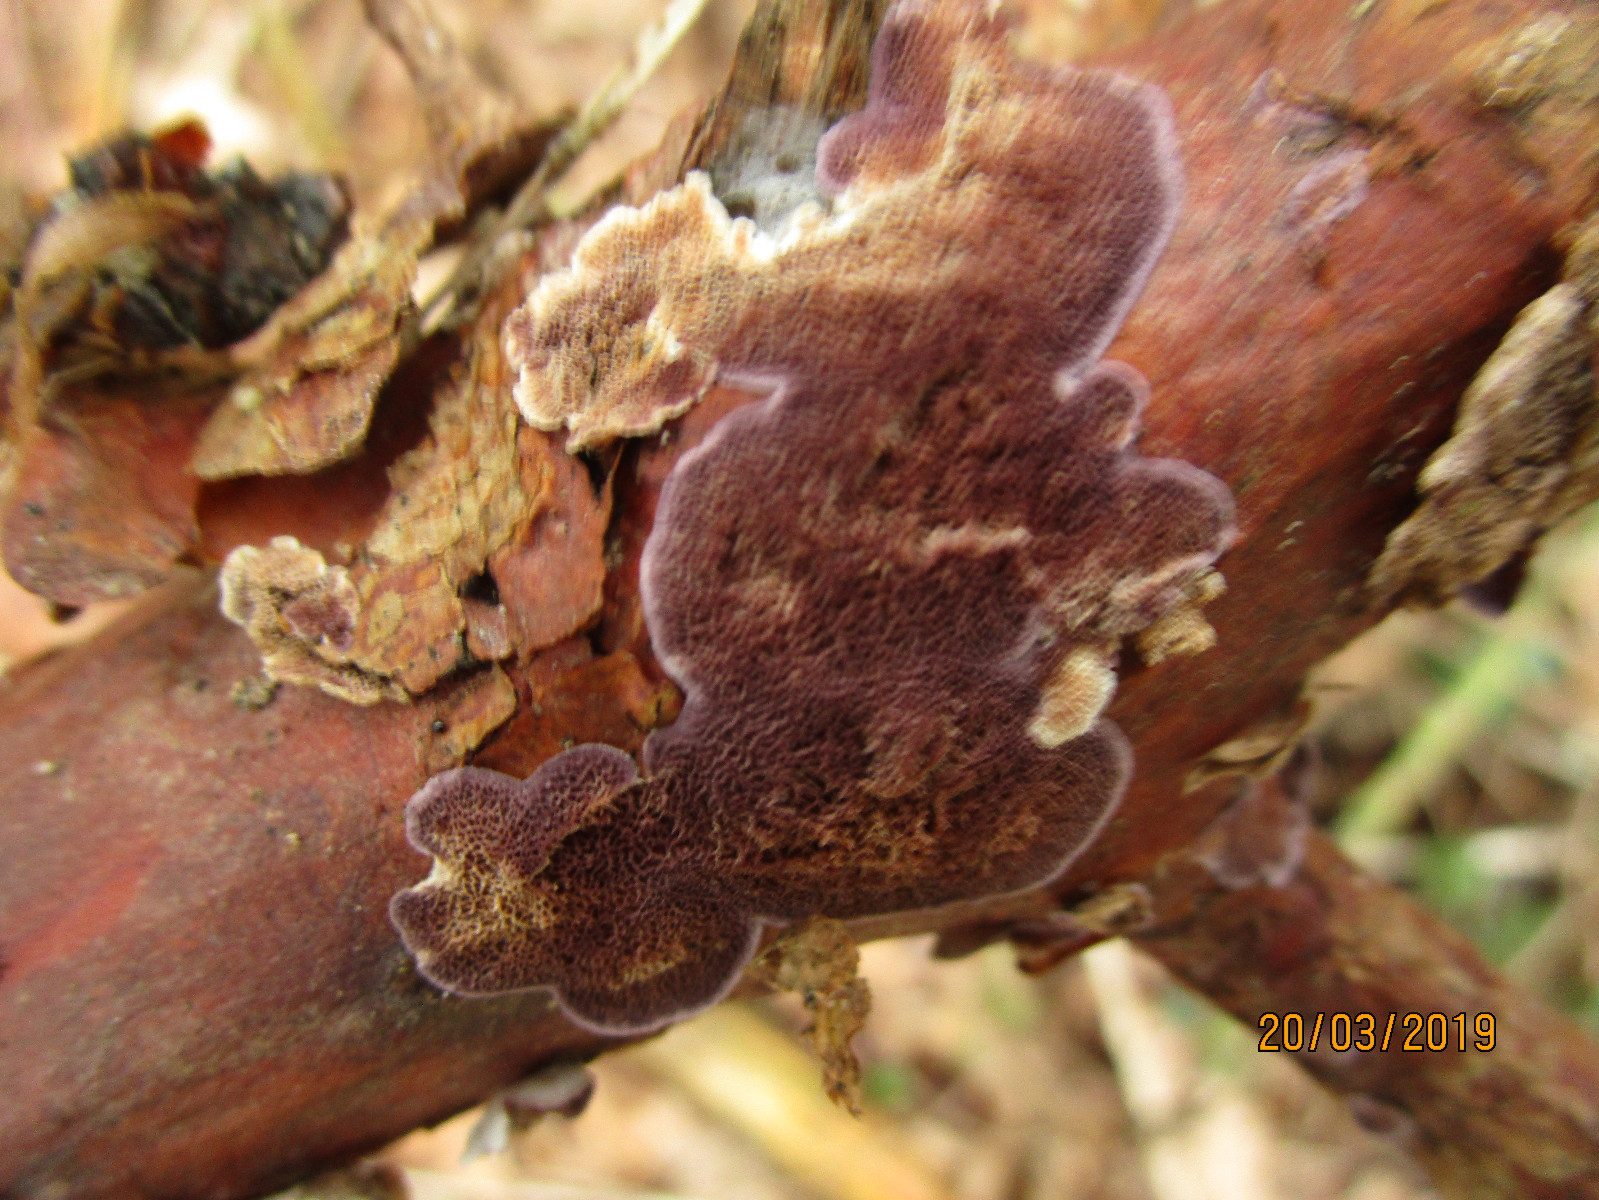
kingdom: Fungi
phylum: Basidiomycota
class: Agaricomycetes
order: Hymenochaetales
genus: Trichaptum
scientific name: Trichaptum abietinum
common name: almindelig violporesvamp
